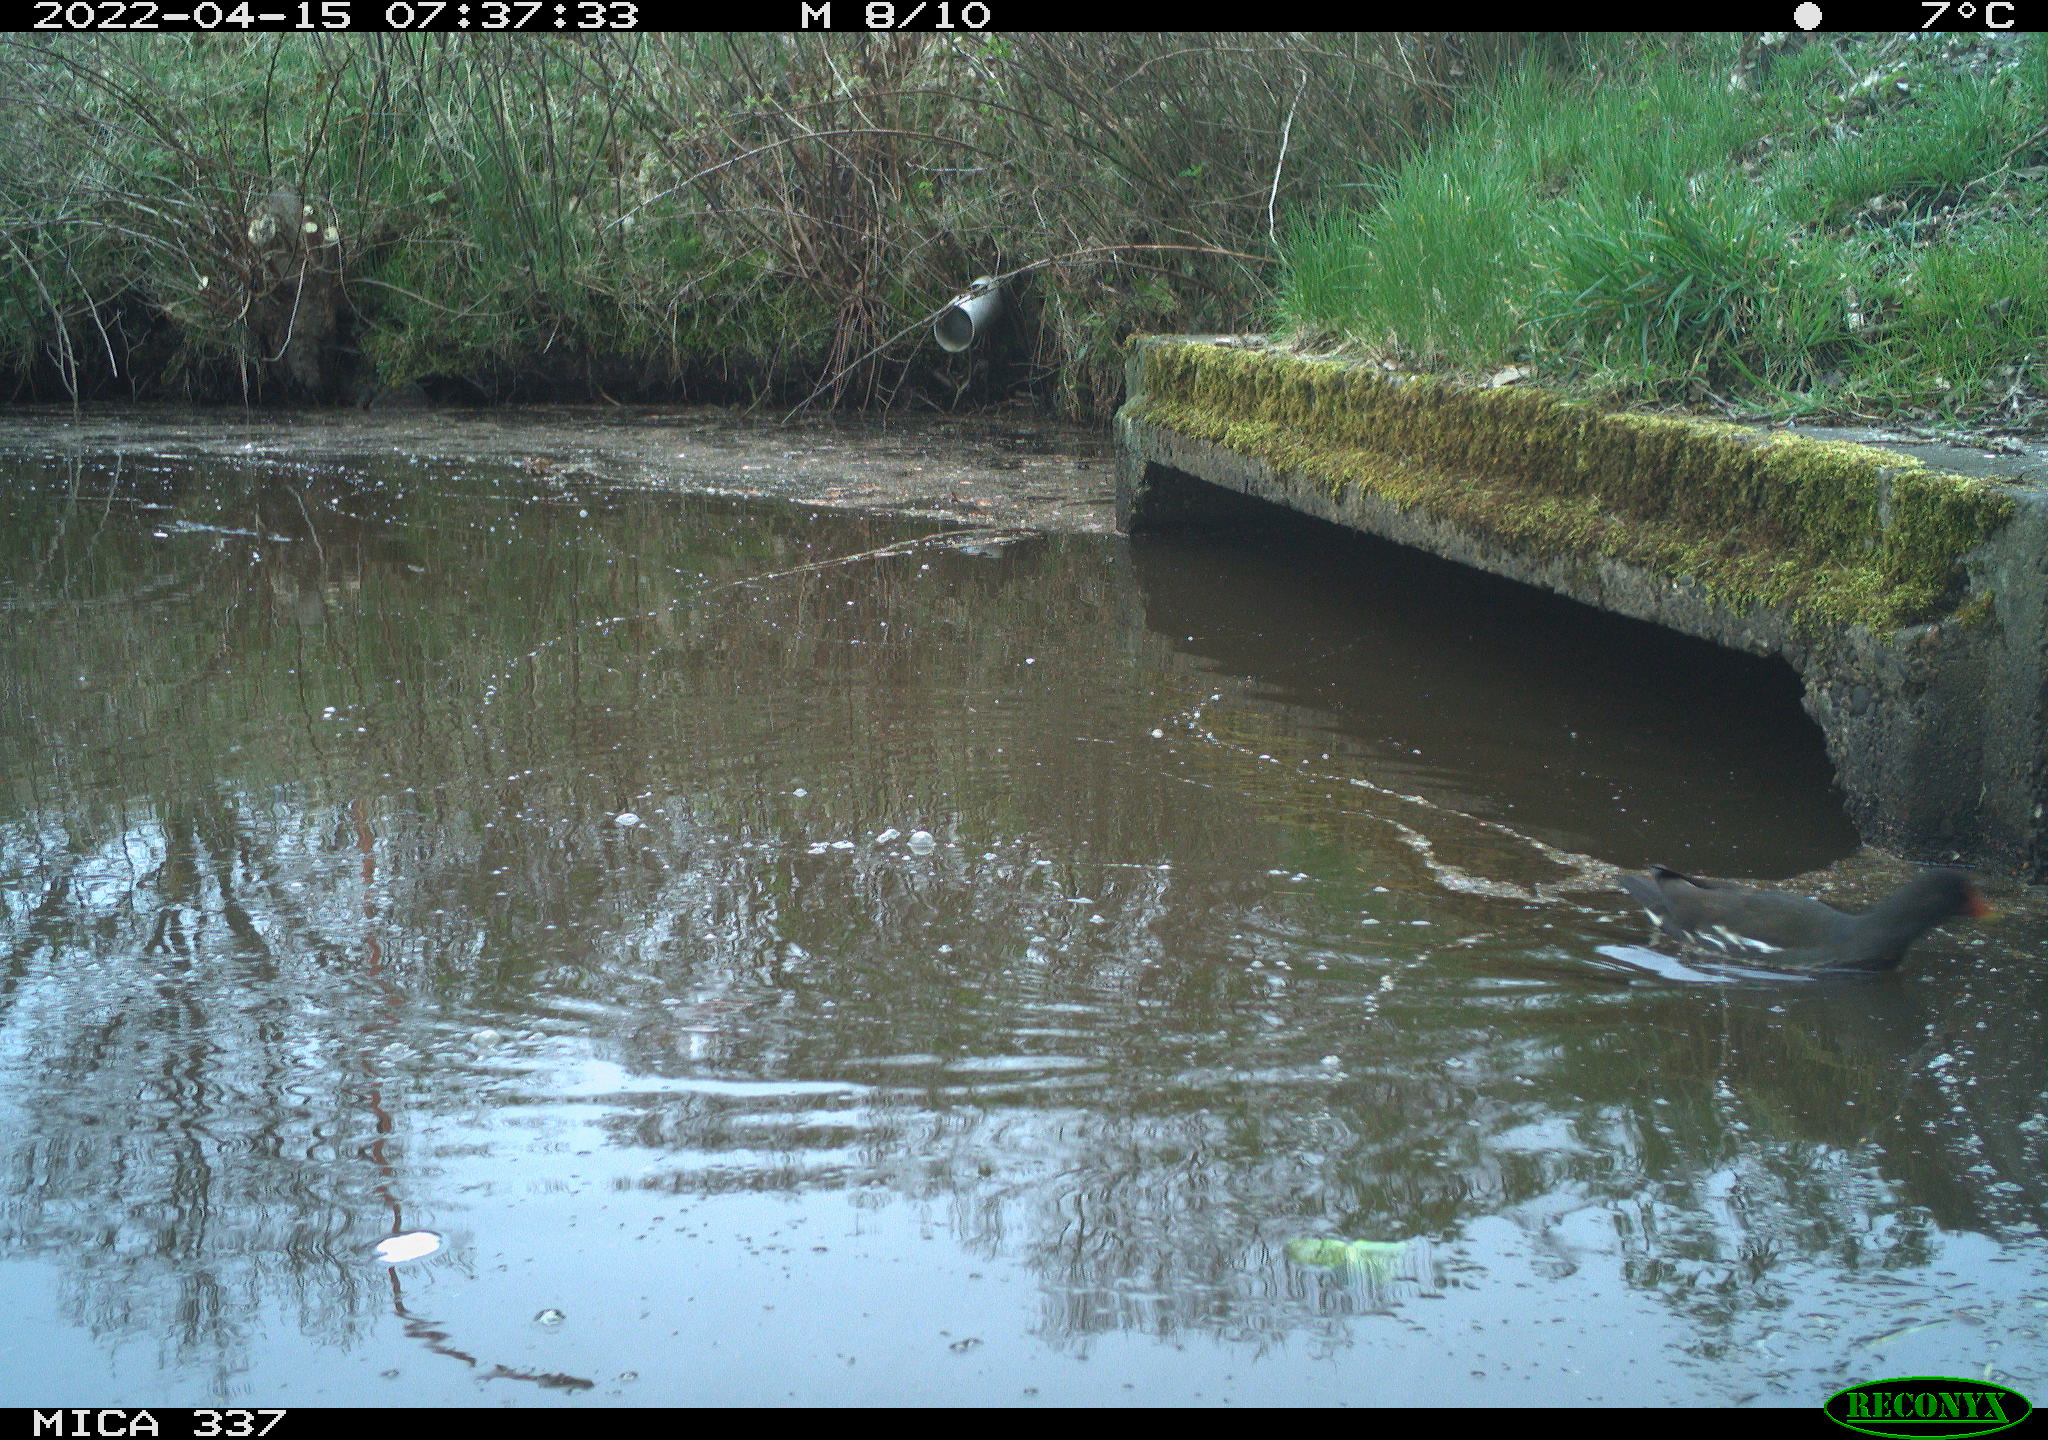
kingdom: Animalia
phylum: Chordata
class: Aves
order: Gruiformes
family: Rallidae
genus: Gallinula
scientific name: Gallinula chloropus
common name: Common moorhen
